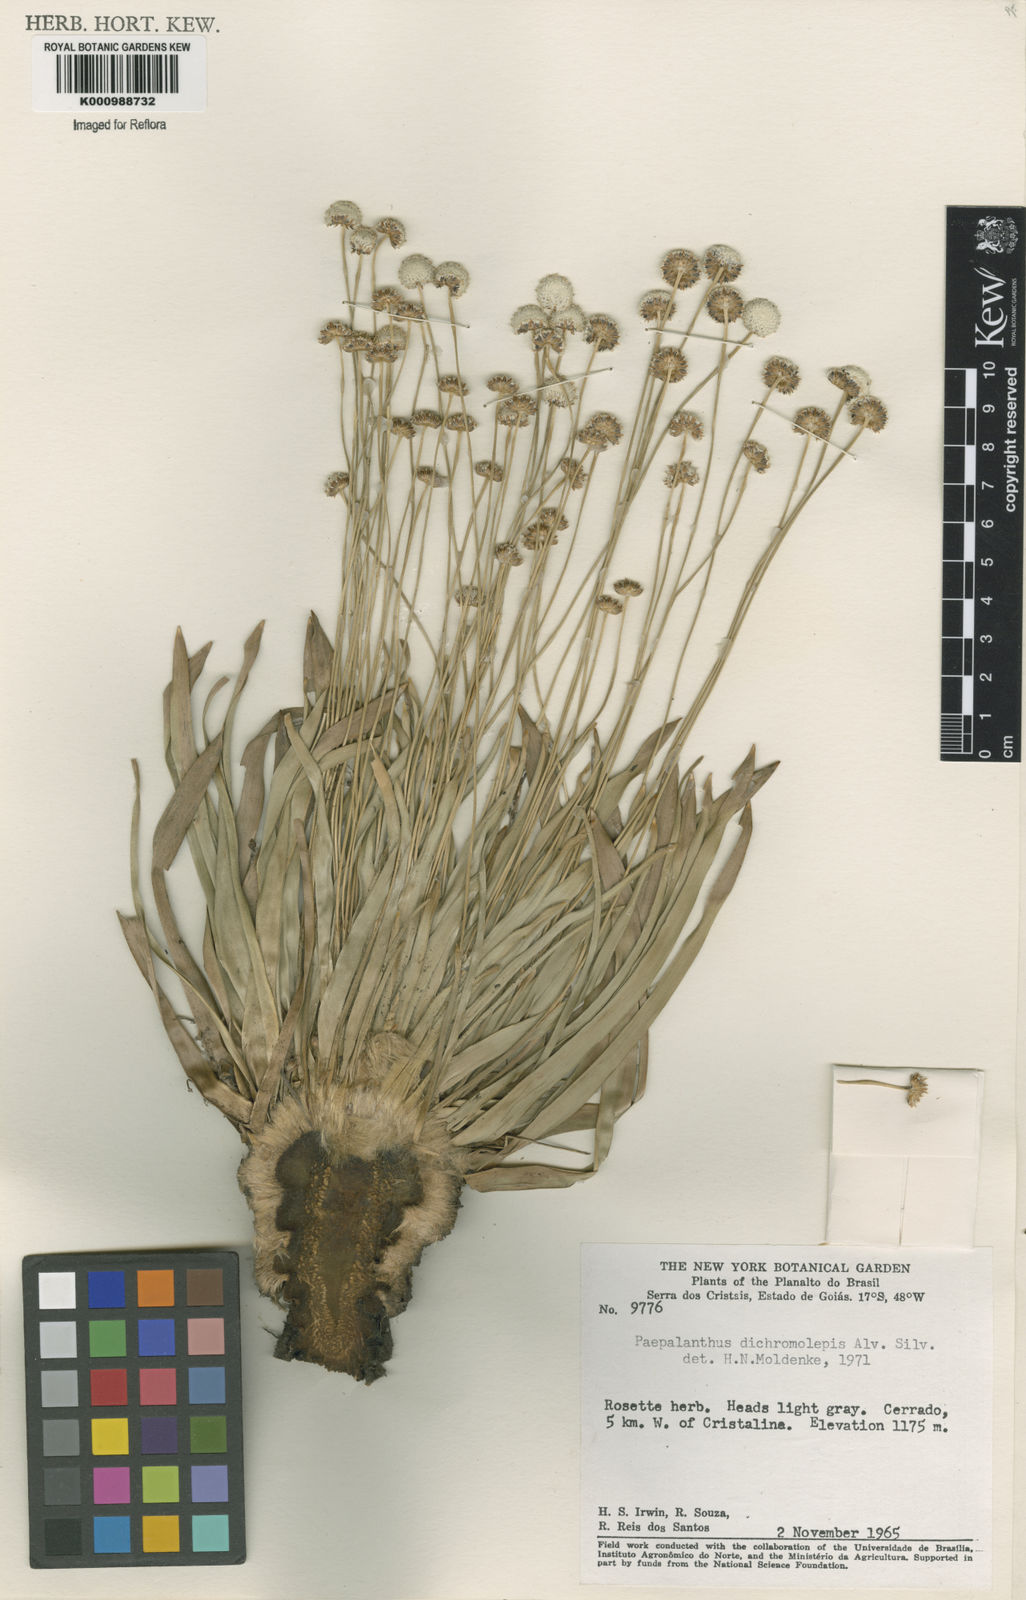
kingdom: Plantae
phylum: Tracheophyta
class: Liliopsida
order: Poales
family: Eriocaulaceae
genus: Paepalanthus
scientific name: Paepalanthus dichromolepis
